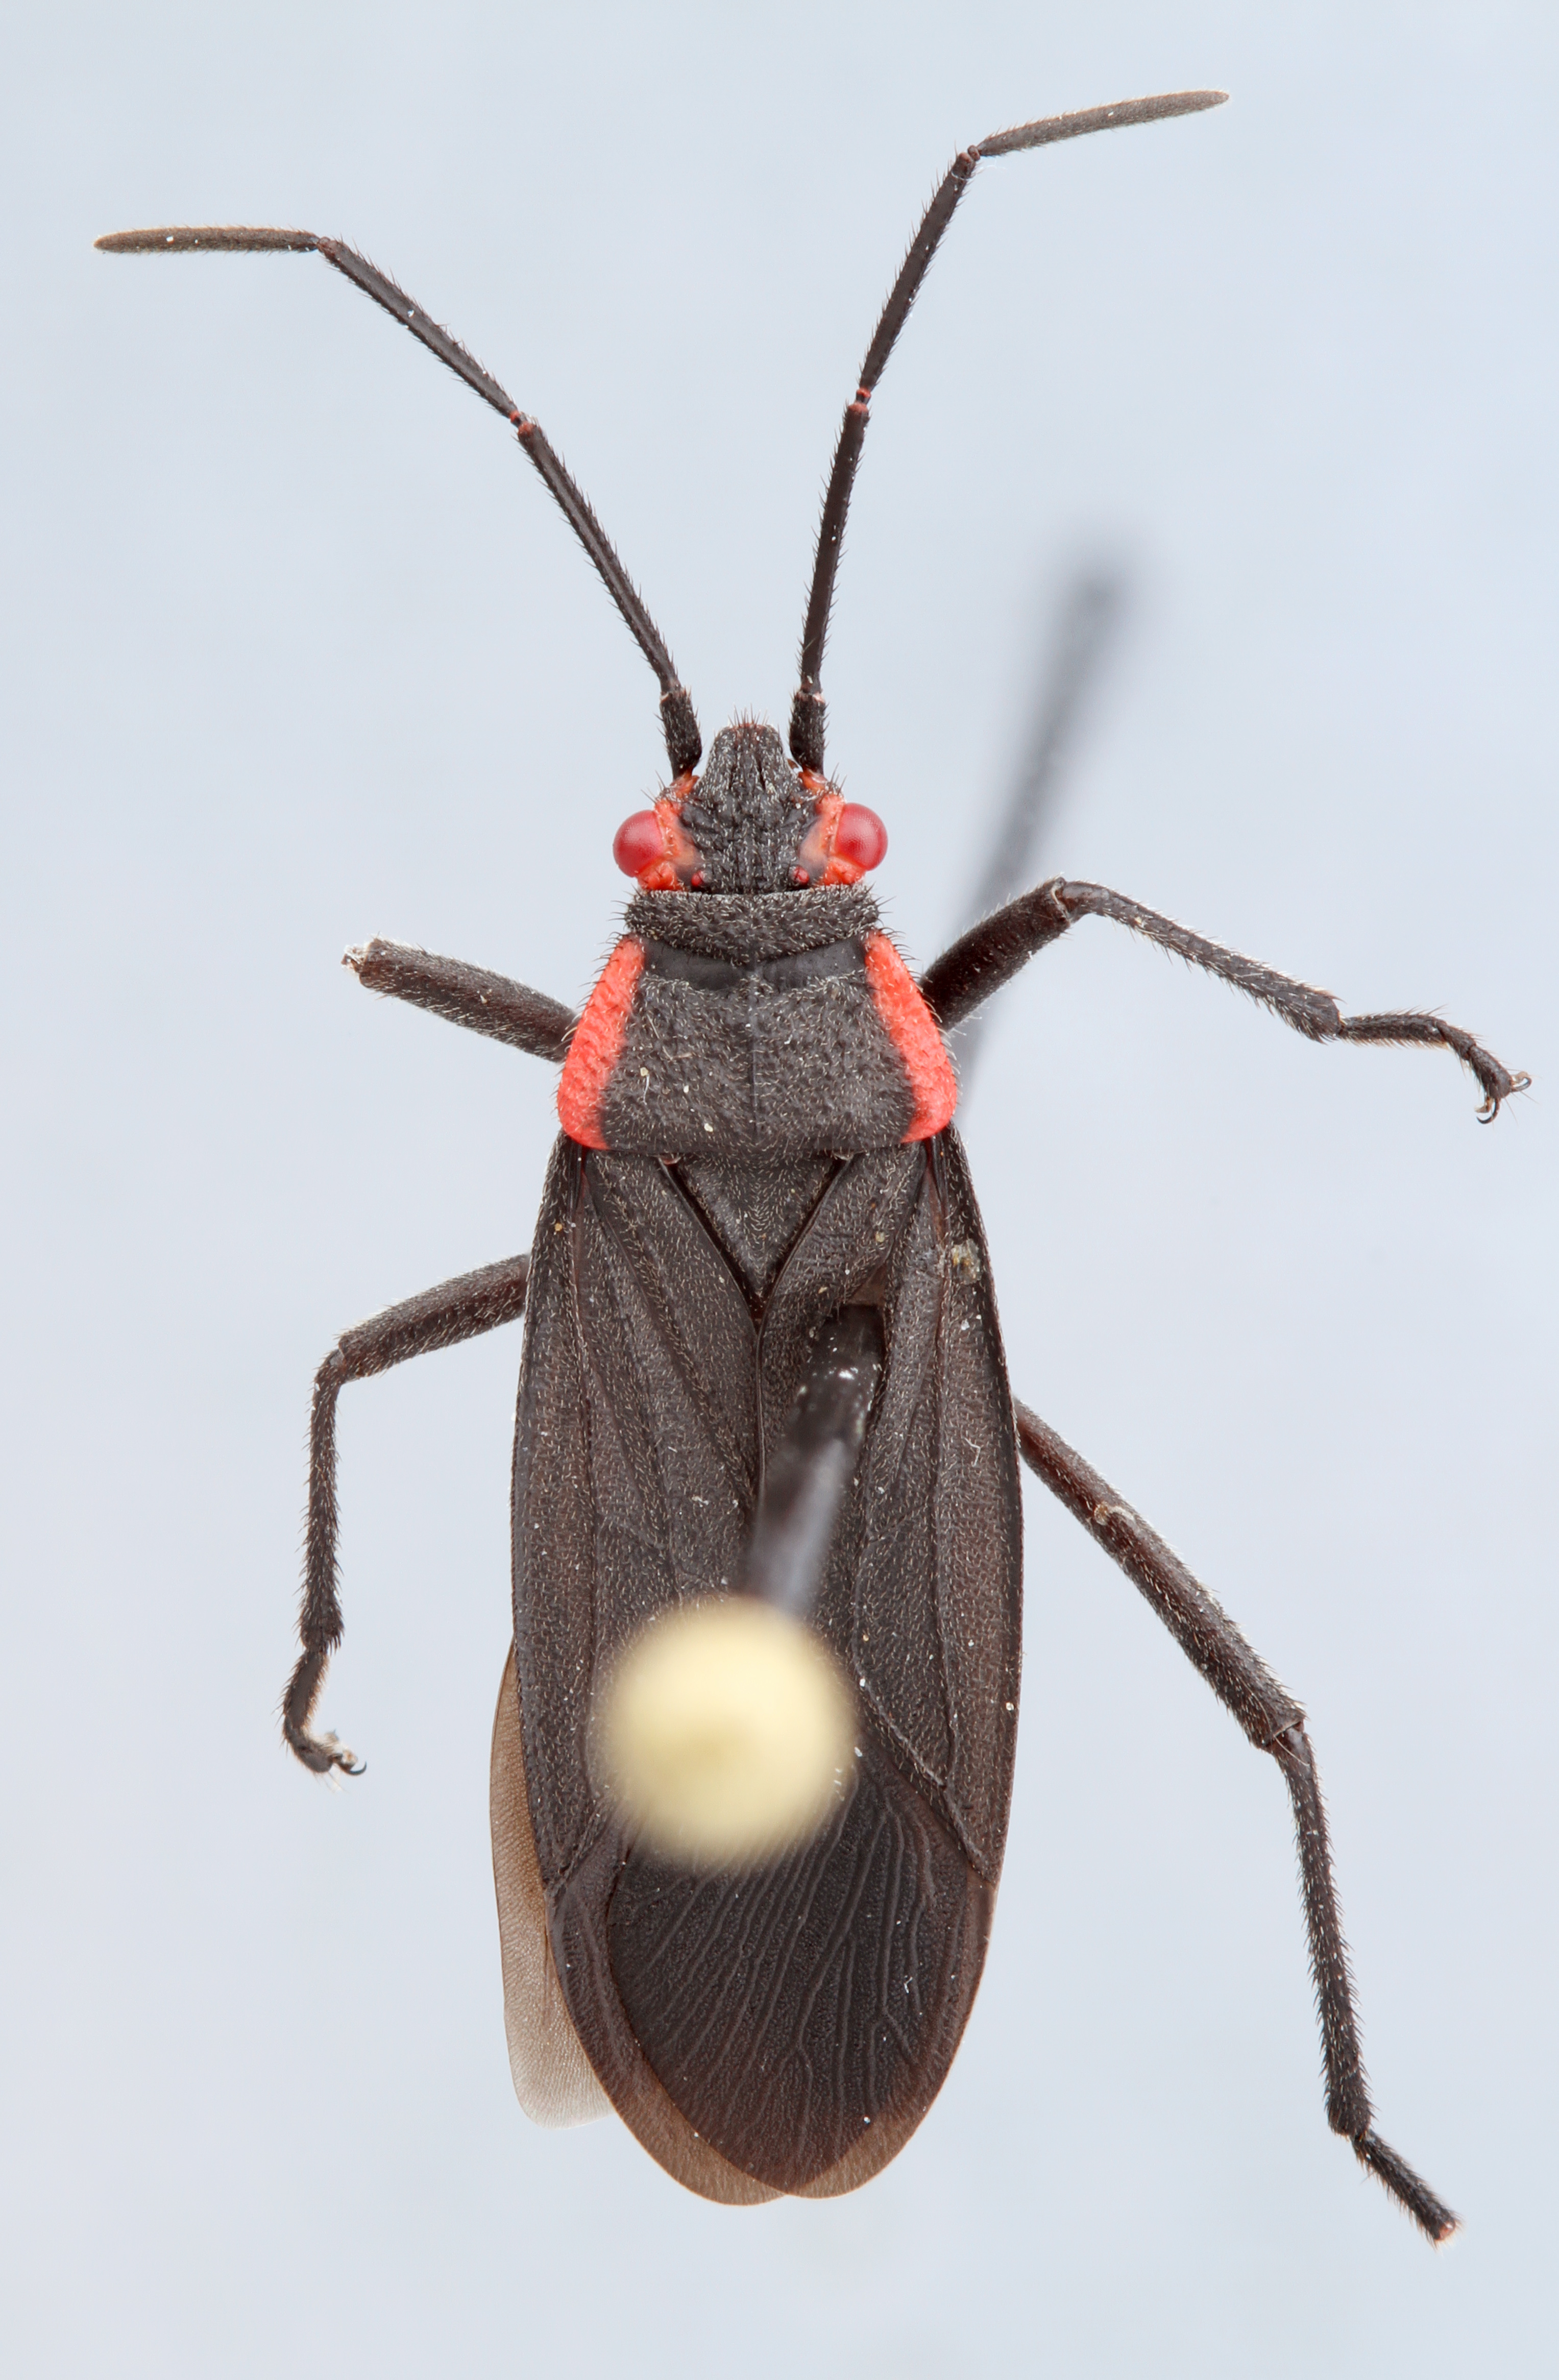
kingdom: Animalia
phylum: Arthropoda
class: Insecta
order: Hemiptera
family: Rhopalidae
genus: Jadera
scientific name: Jadera haematoloma
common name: Red-shouldered bug
